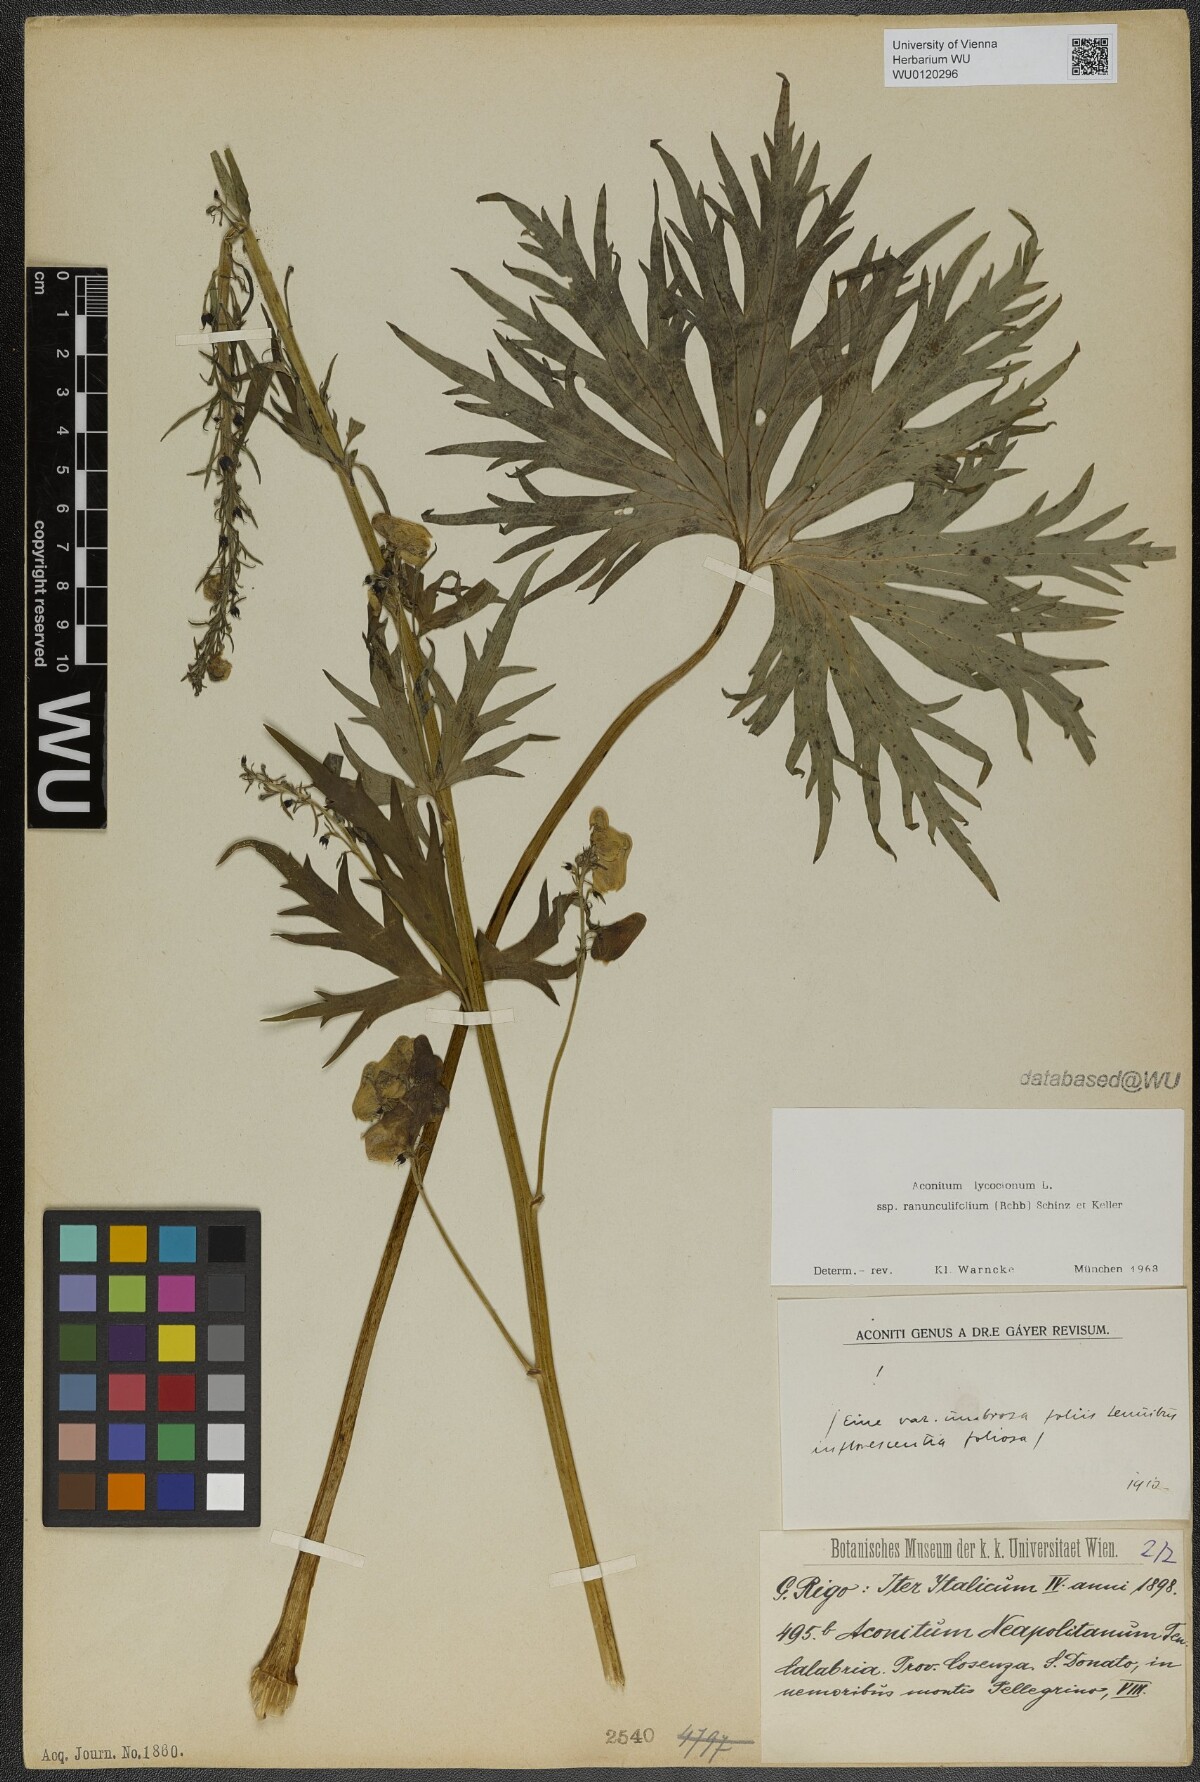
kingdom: Plantae
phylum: Tracheophyta
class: Magnoliopsida
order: Ranunculales
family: Ranunculaceae
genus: Aconitum
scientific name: Aconitum lycoctonum
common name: Wolf's-bane
